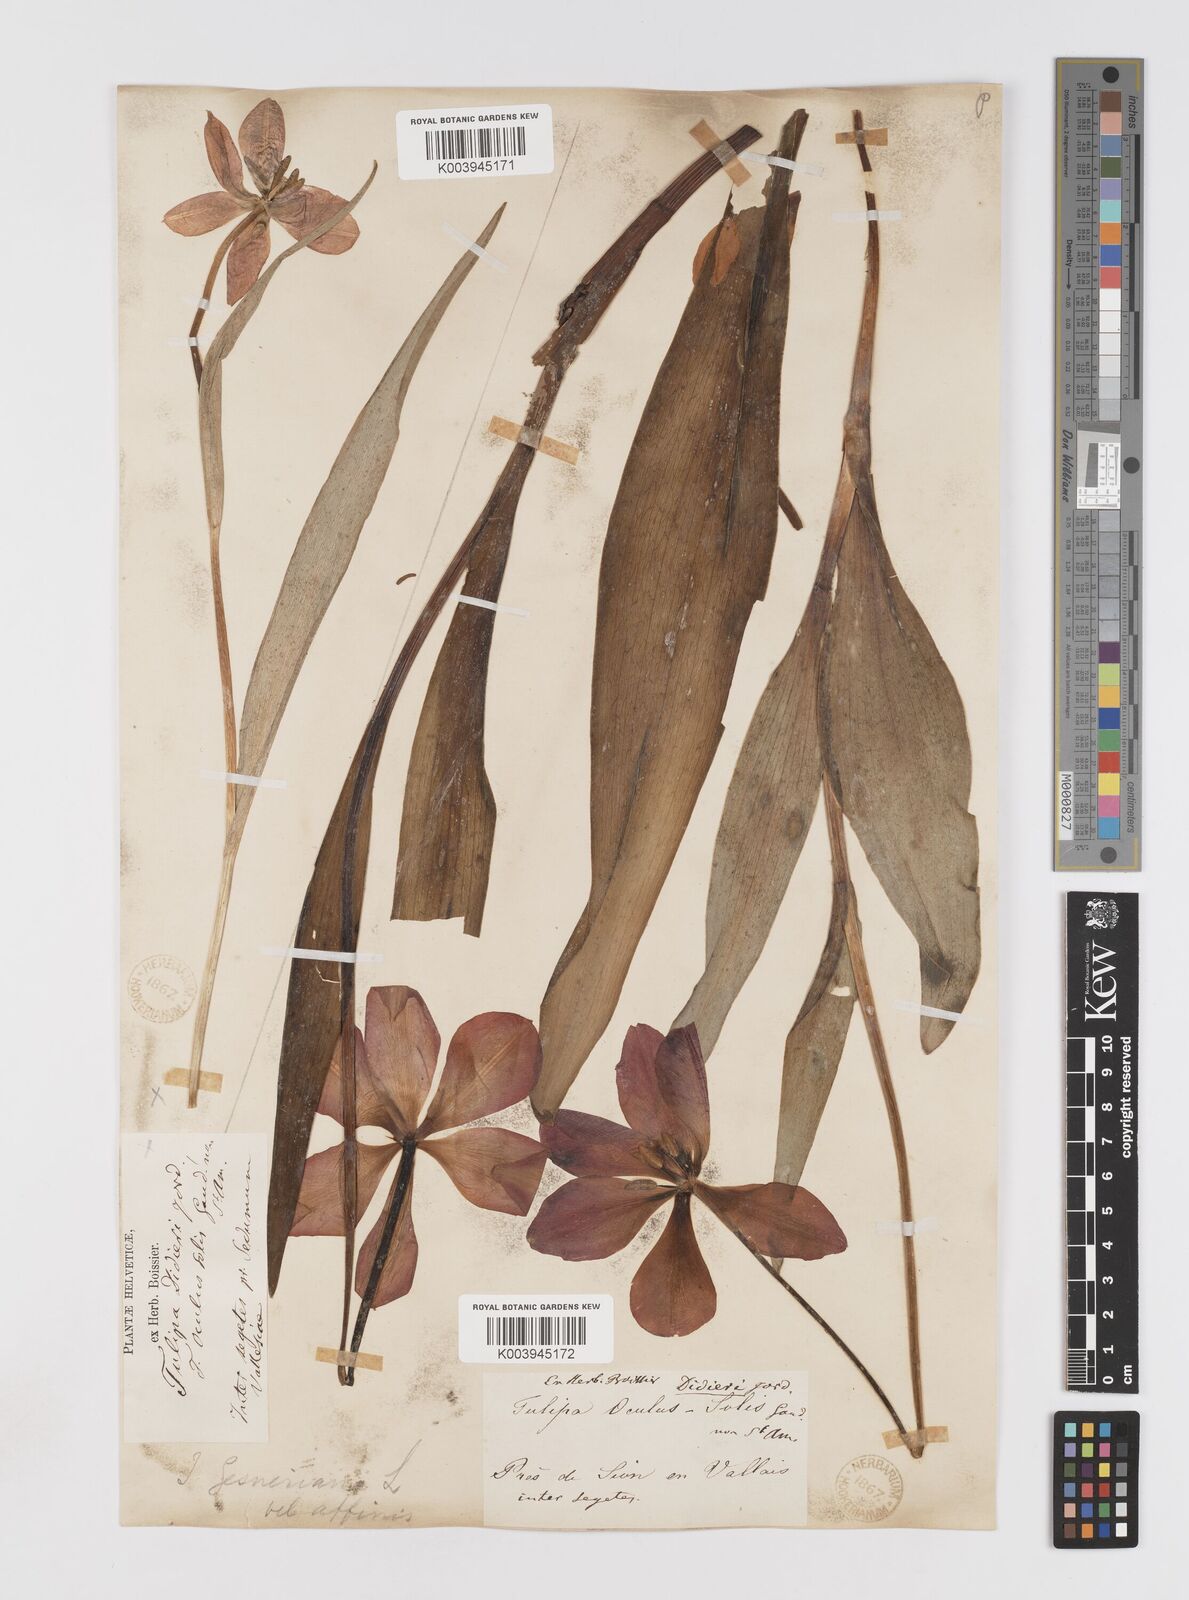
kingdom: Plantae
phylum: Tracheophyta
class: Liliopsida
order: Liliales
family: Liliaceae
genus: Tulipa
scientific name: Tulipa gesneriana
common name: Garden tulip
